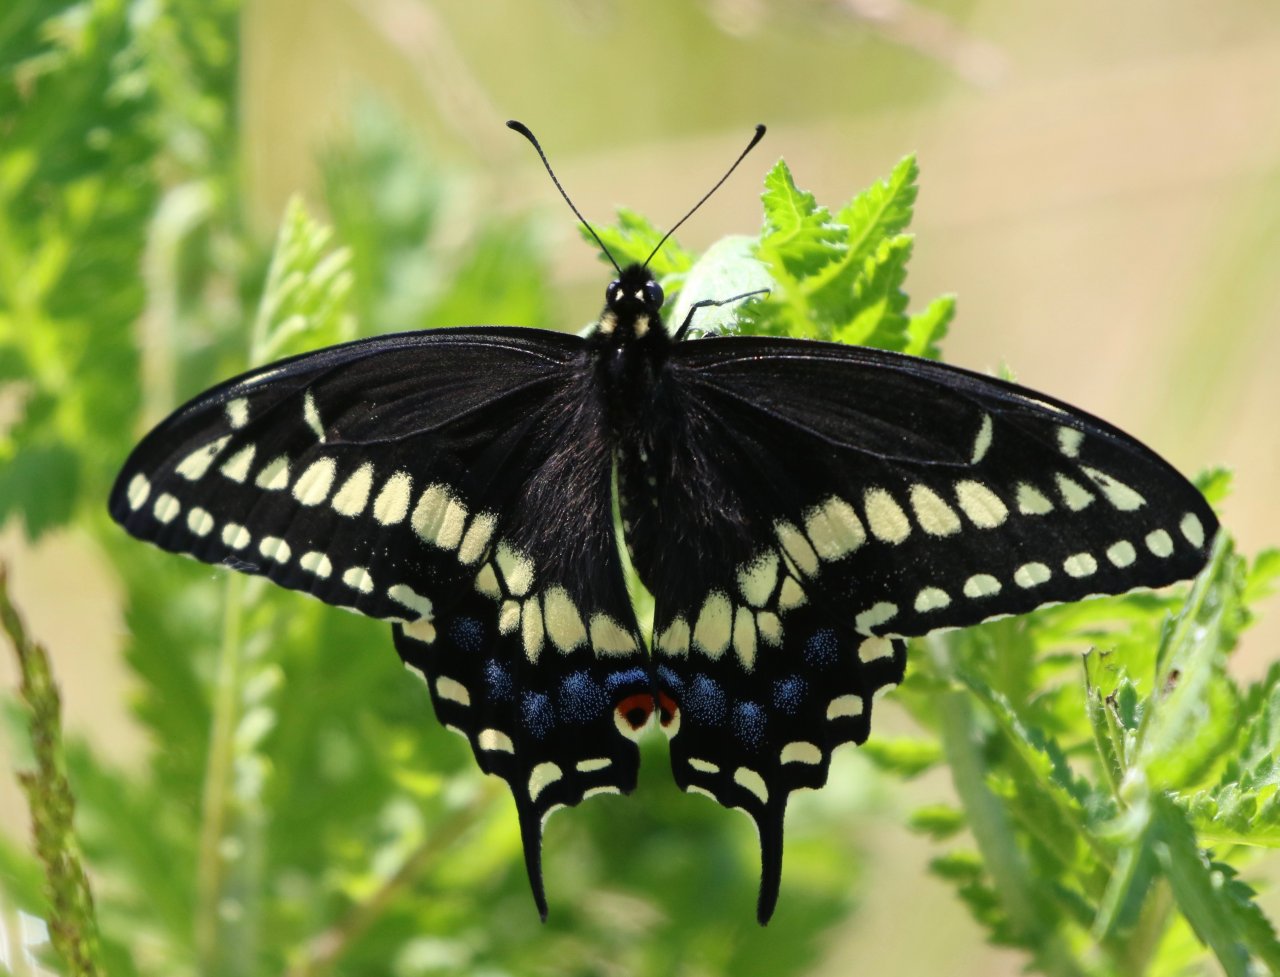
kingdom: Animalia
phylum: Arthropoda
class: Insecta
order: Lepidoptera
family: Papilionidae
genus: Papilio
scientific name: Papilio polyxenes
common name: Black Swallowtail
